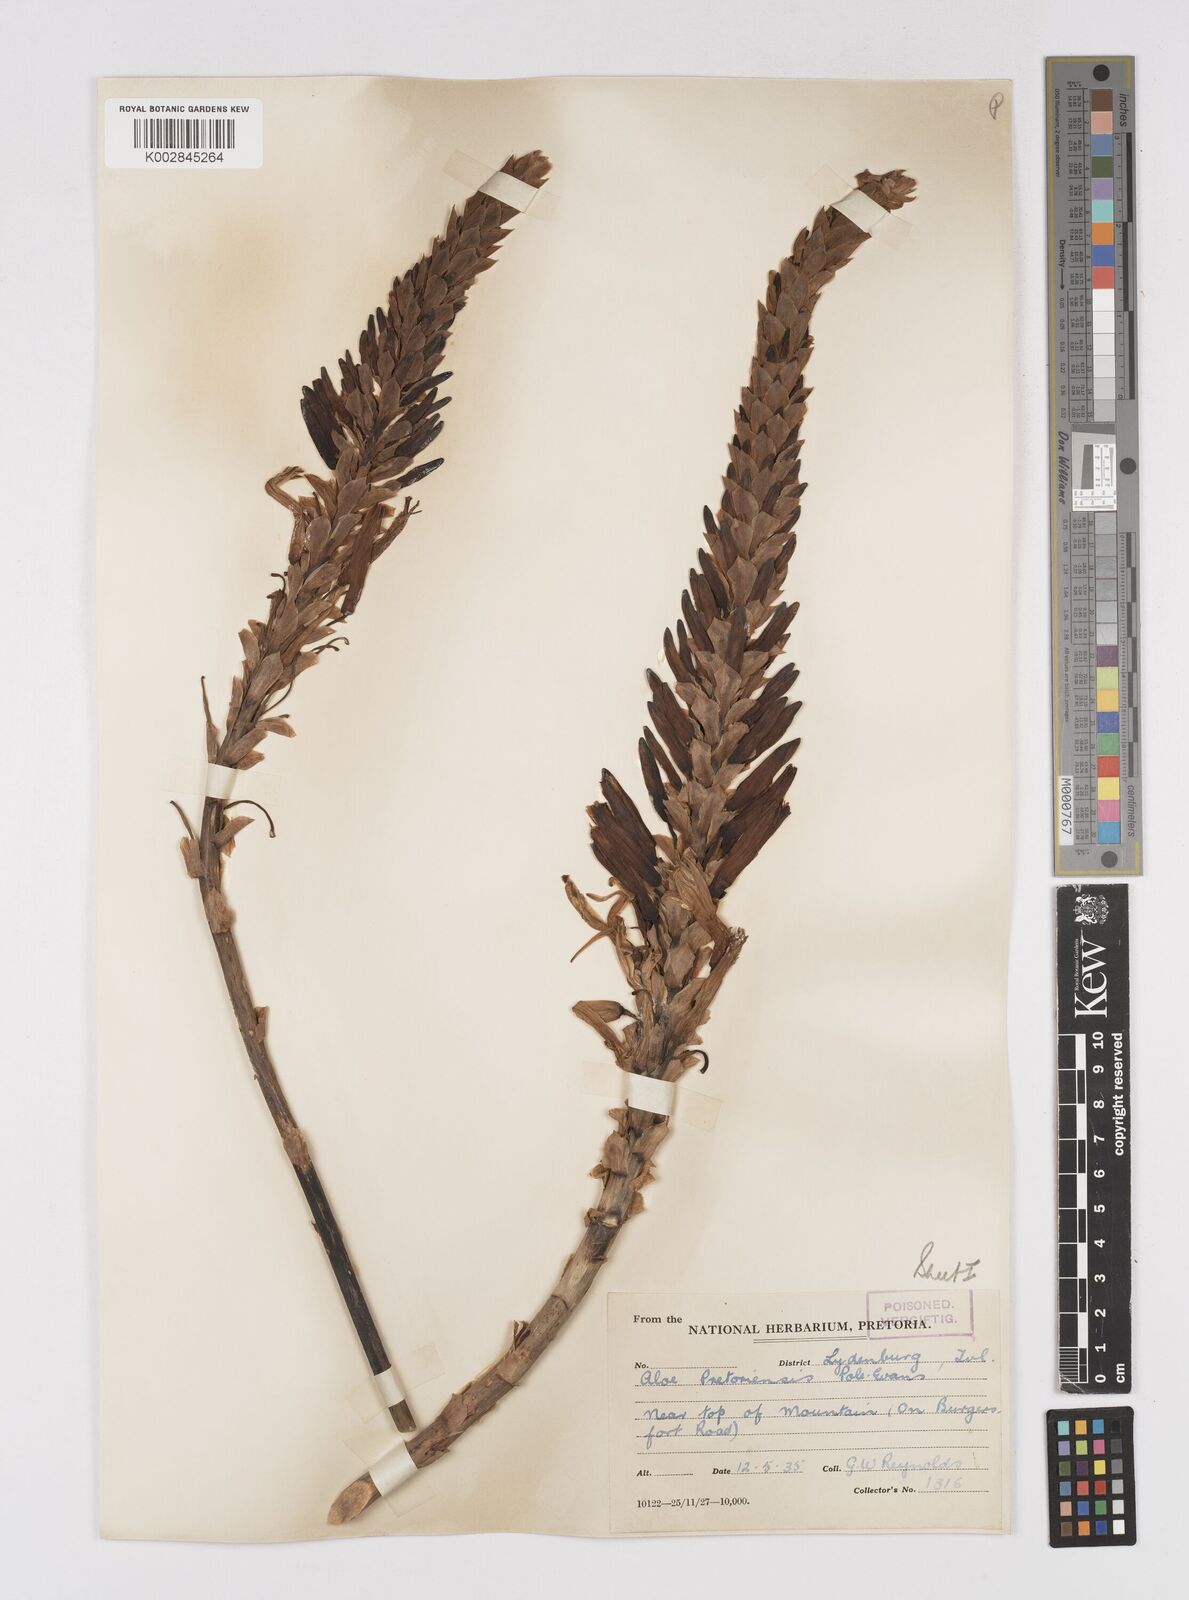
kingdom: Plantae
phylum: Tracheophyta
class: Liliopsida
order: Asparagales
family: Asphodelaceae
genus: Aloe
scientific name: Aloe pretoriensis
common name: Pretoria aloe
